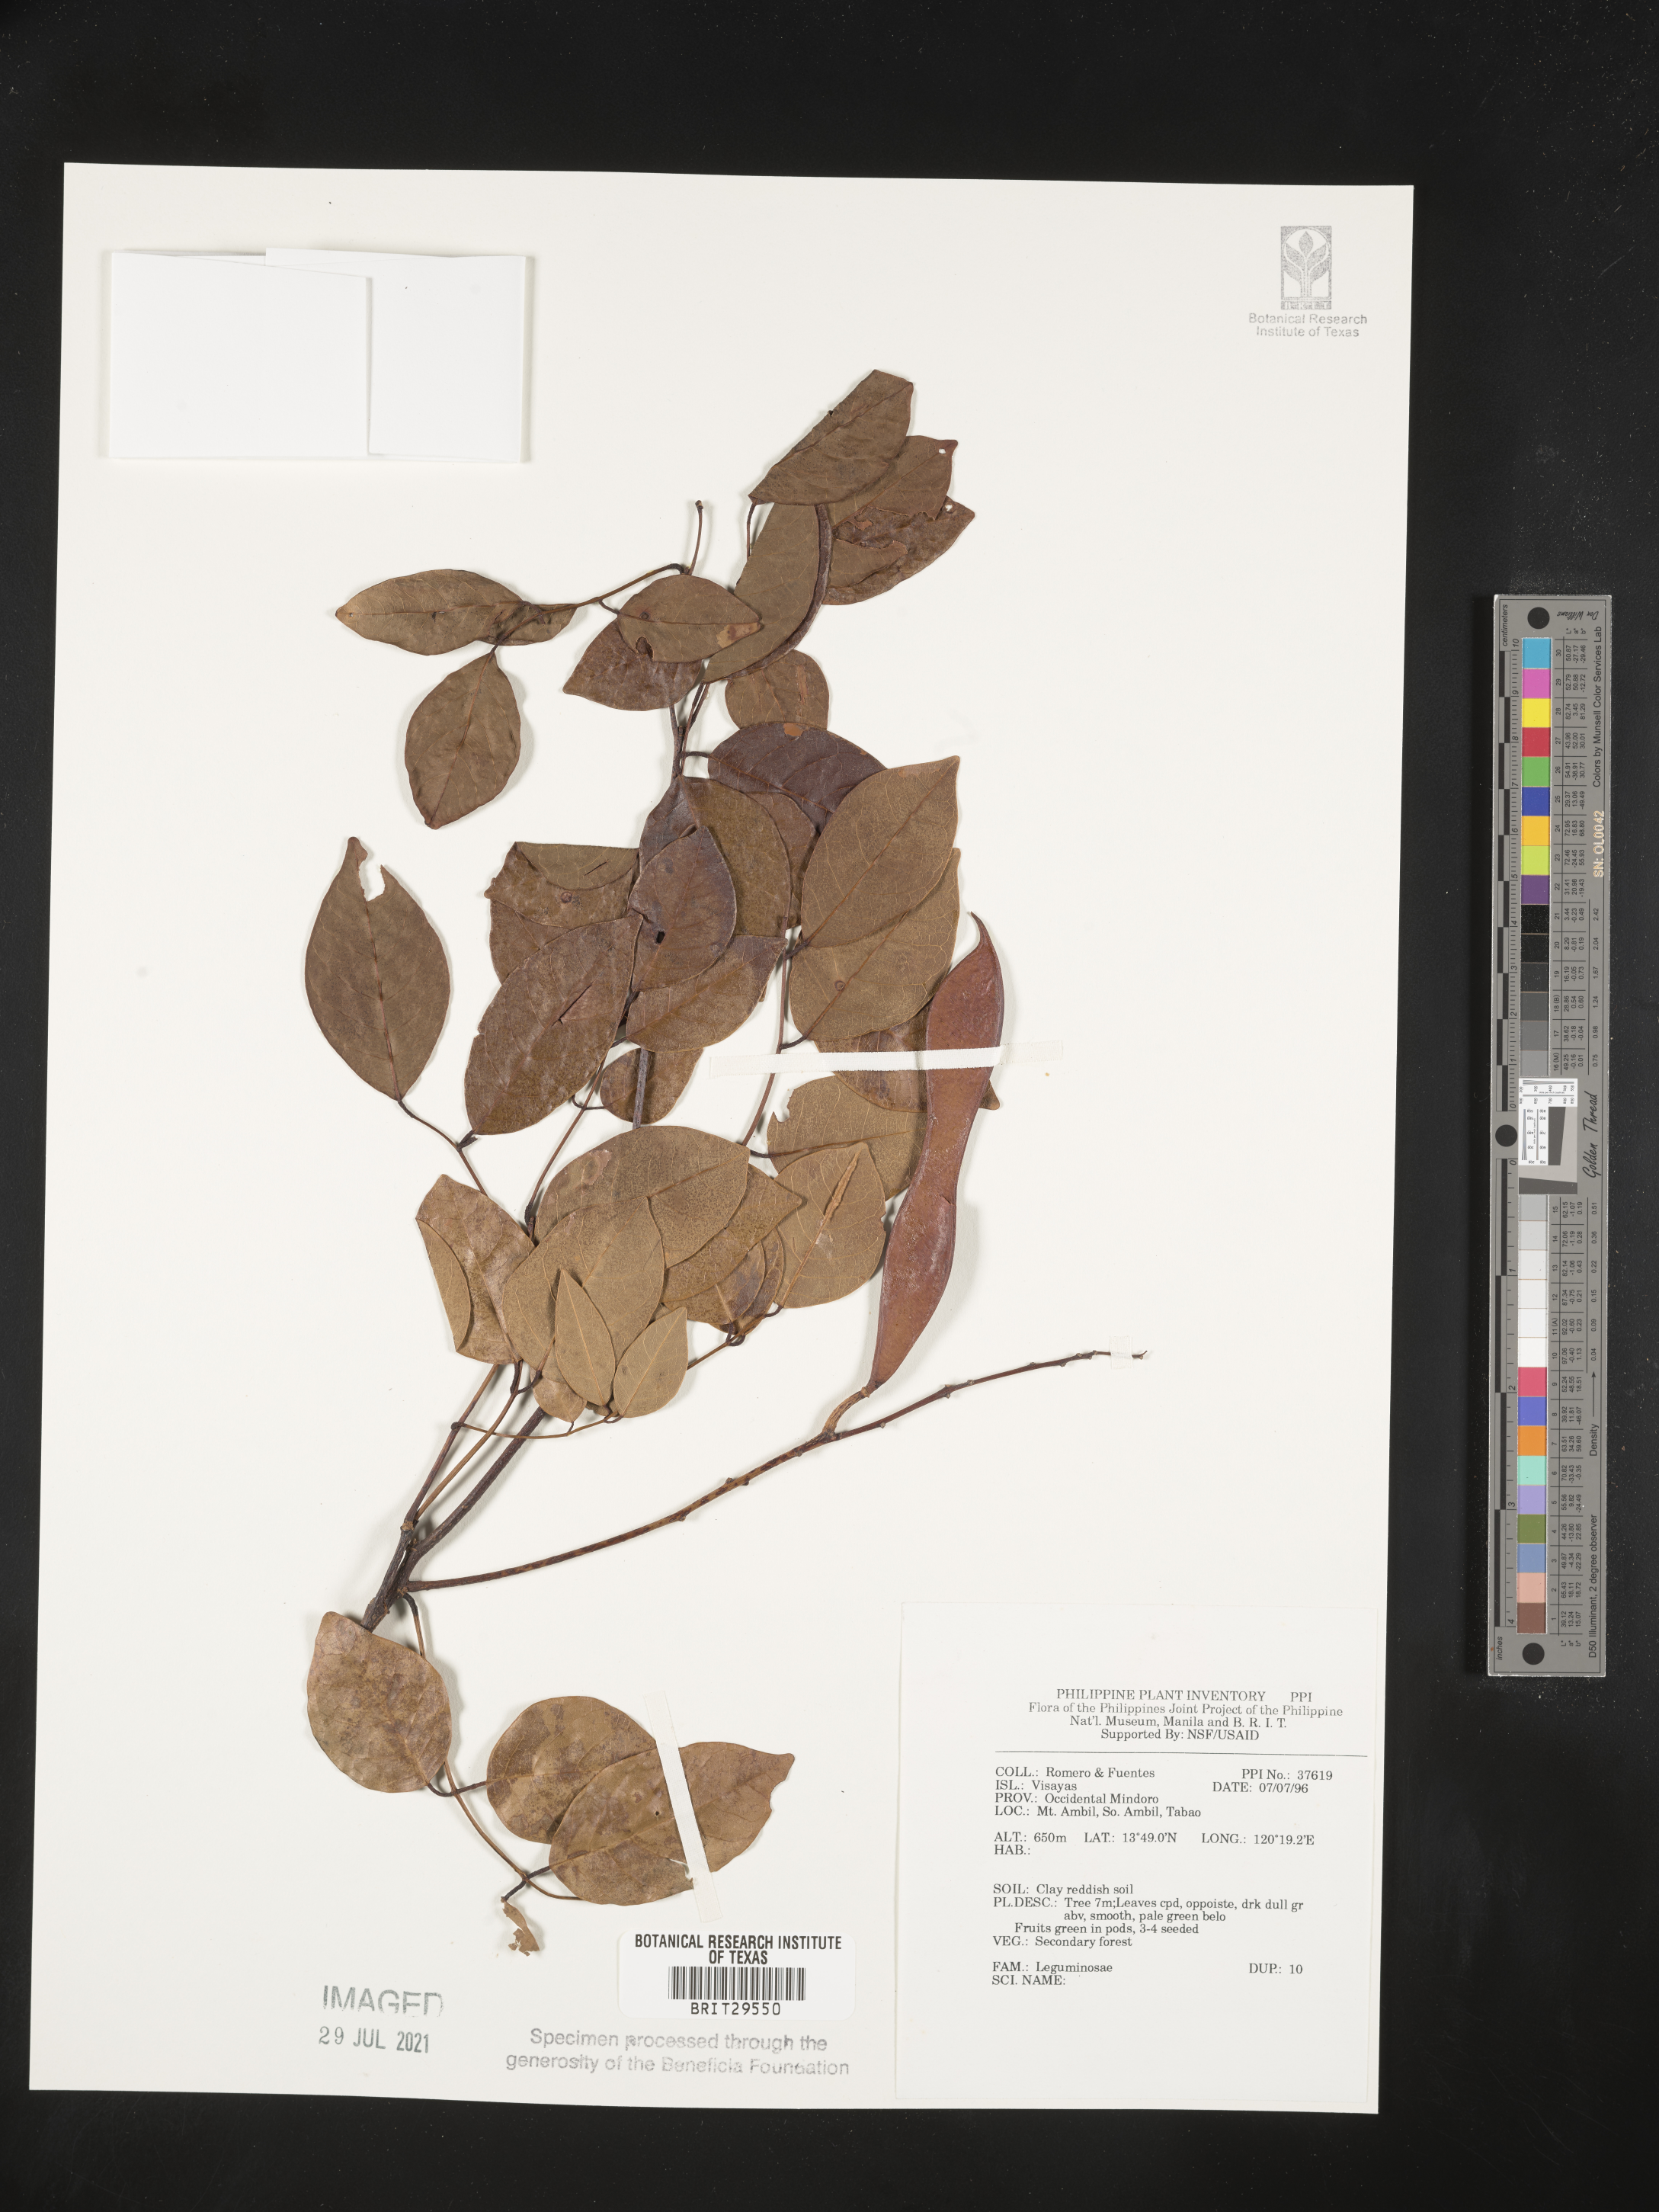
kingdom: Plantae
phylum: Tracheophyta
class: Magnoliopsida
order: Fabales
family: Fabaceae
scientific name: Fabaceae
